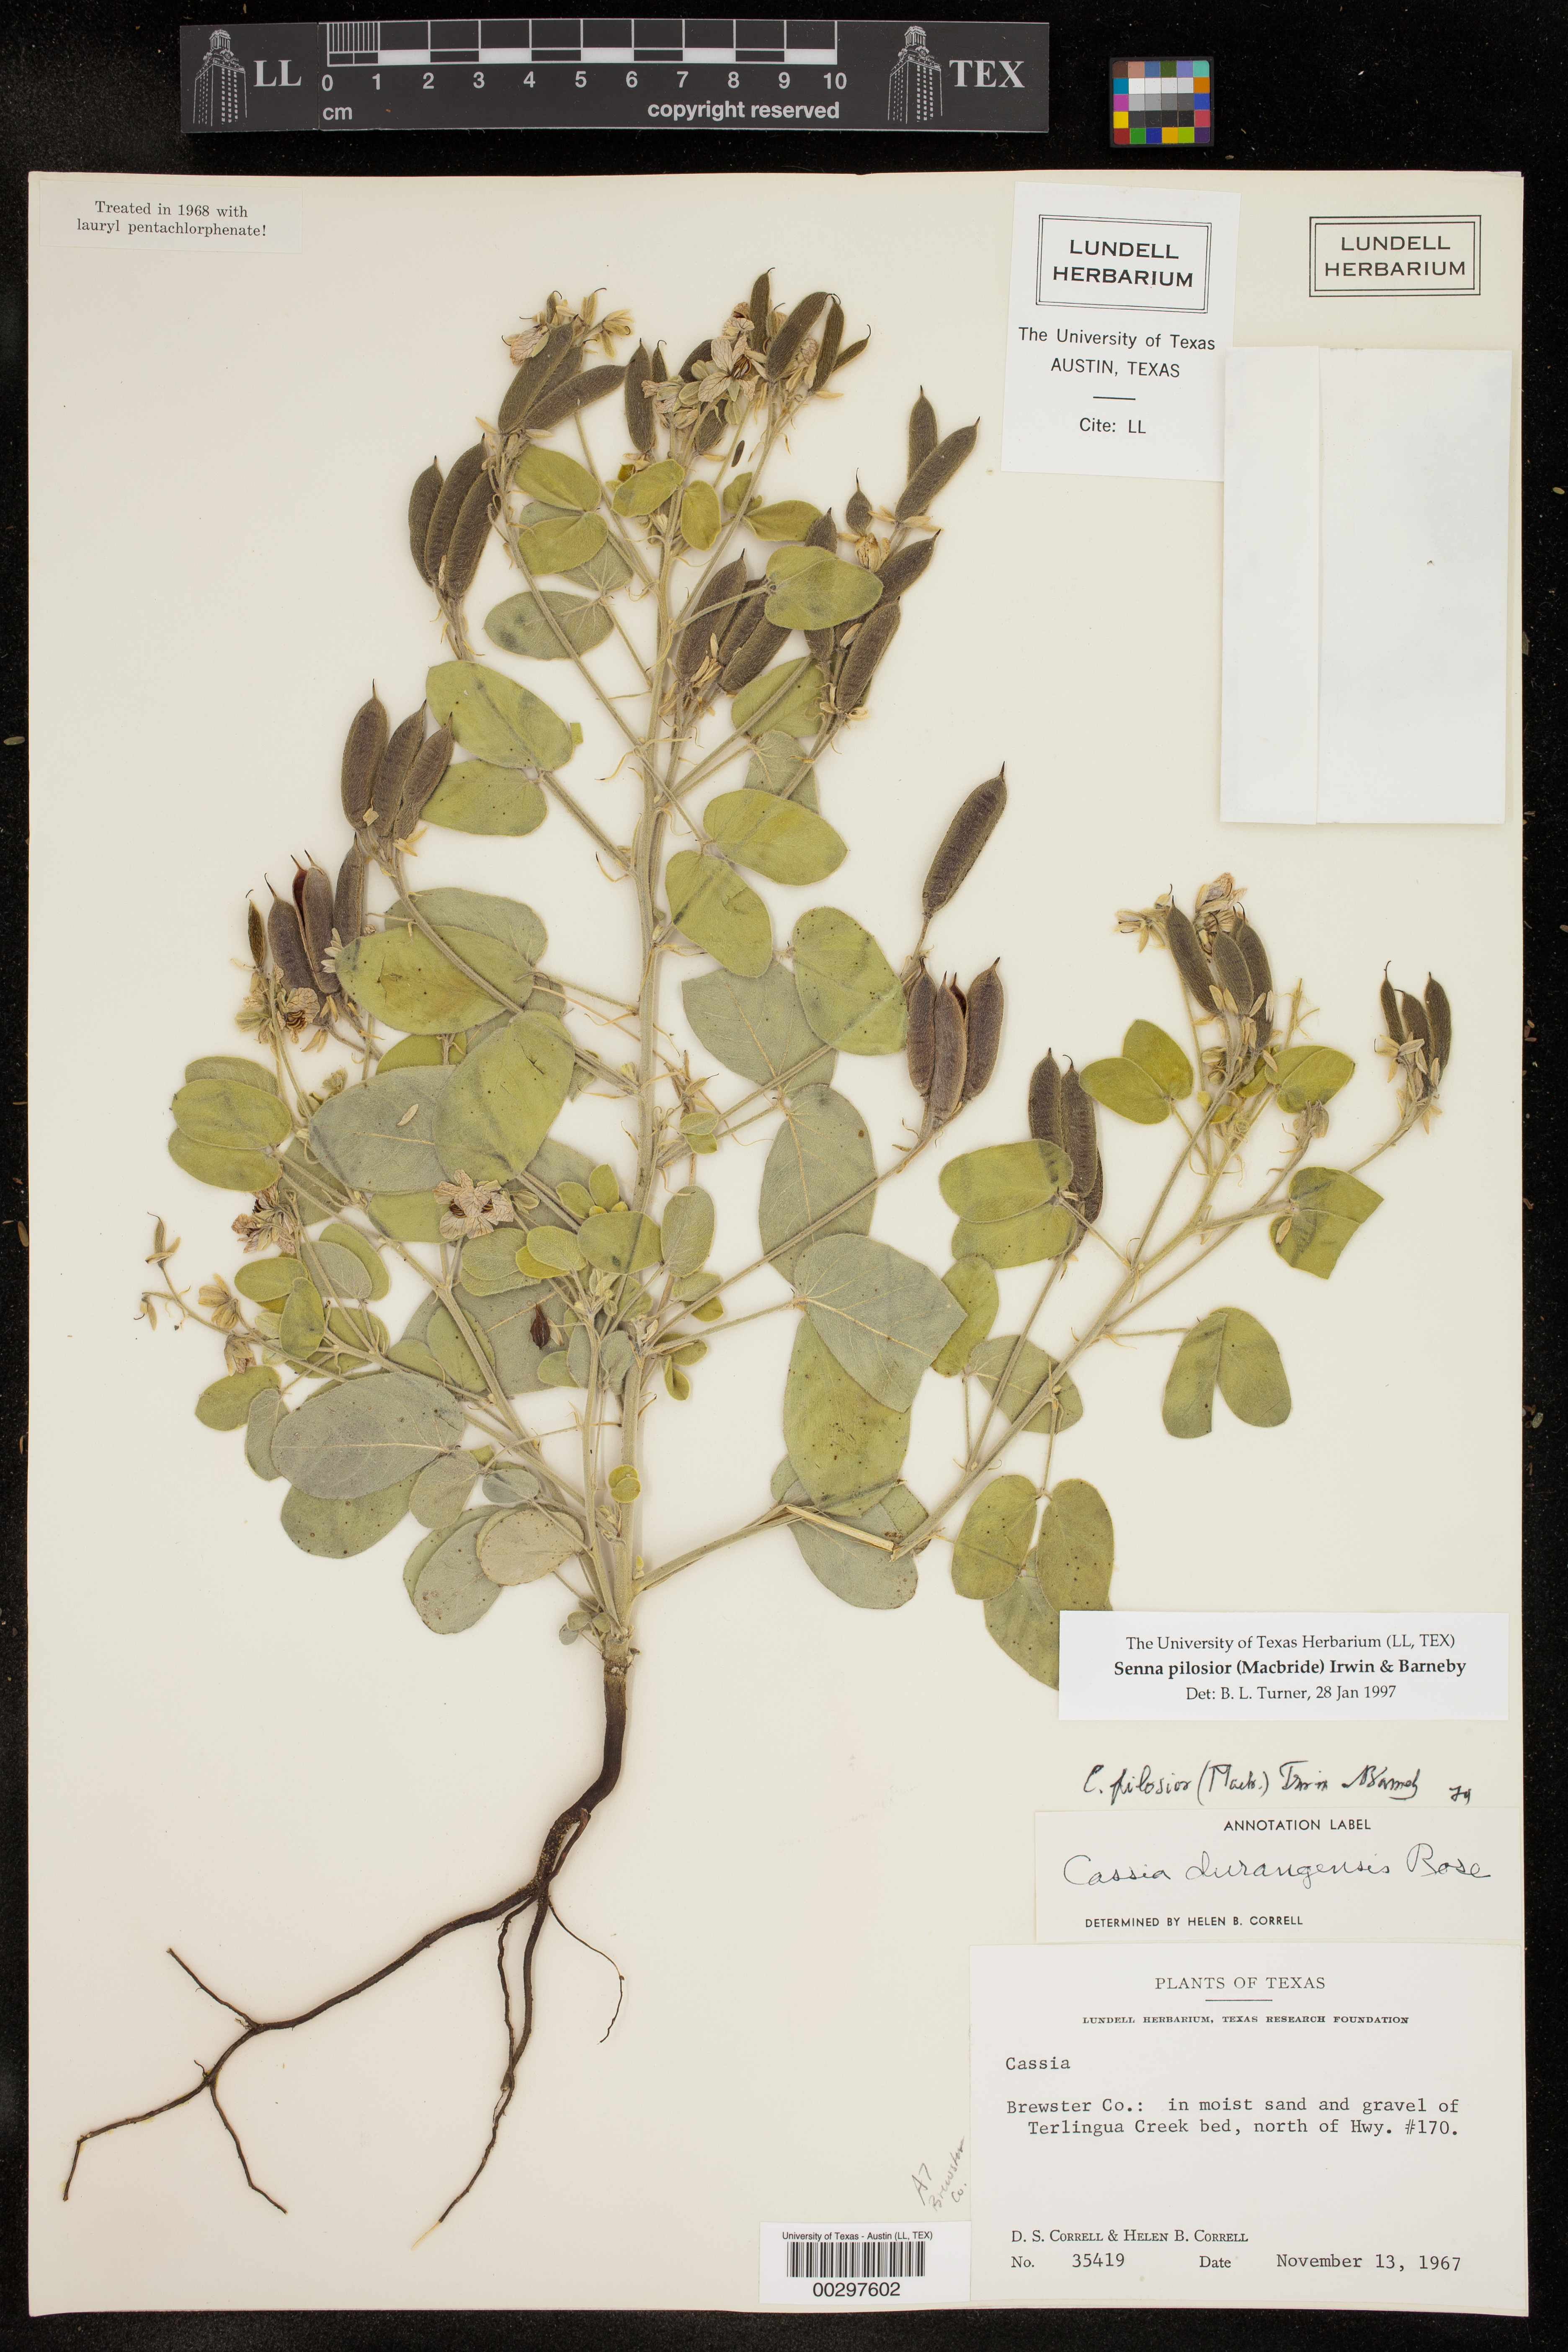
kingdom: Plantae
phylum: Tracheophyta
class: Magnoliopsida
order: Fabales
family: Fabaceae
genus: Senna
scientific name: Senna pilosior
